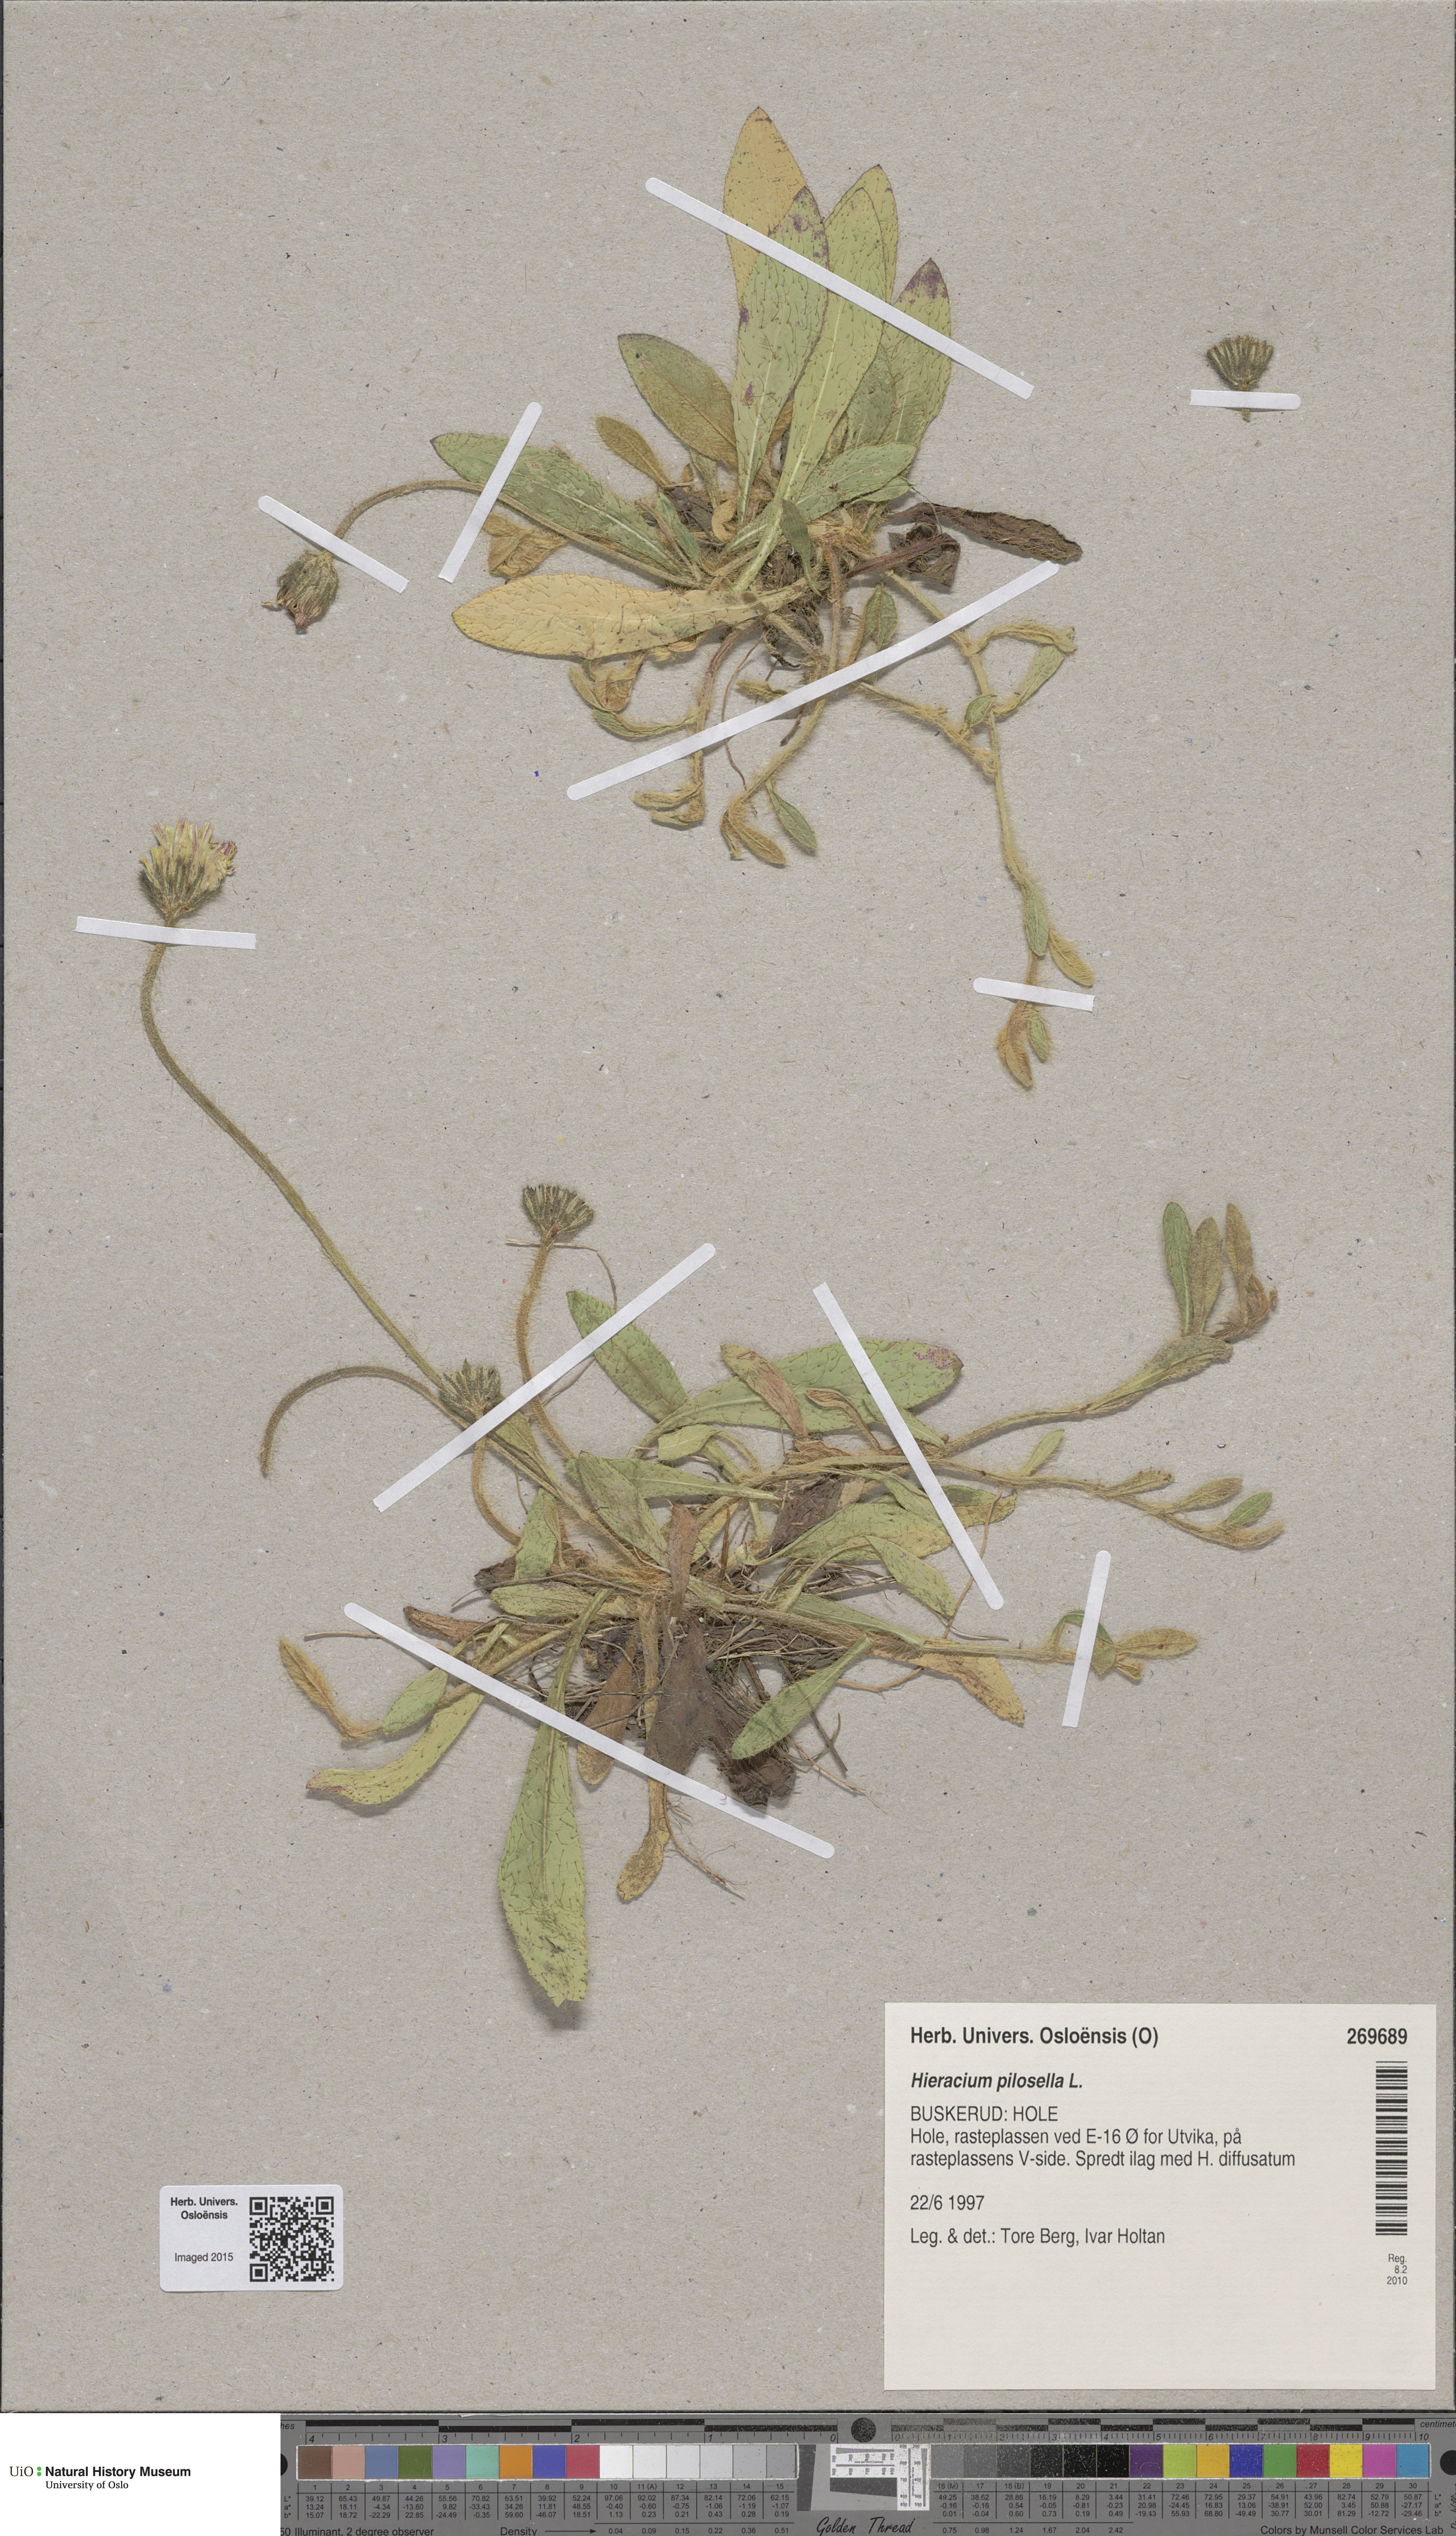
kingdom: Plantae
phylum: Tracheophyta
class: Magnoliopsida
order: Asterales
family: Asteraceae
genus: Pilosella
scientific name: Pilosella officinarum
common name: Mouse-ear hawkweed
